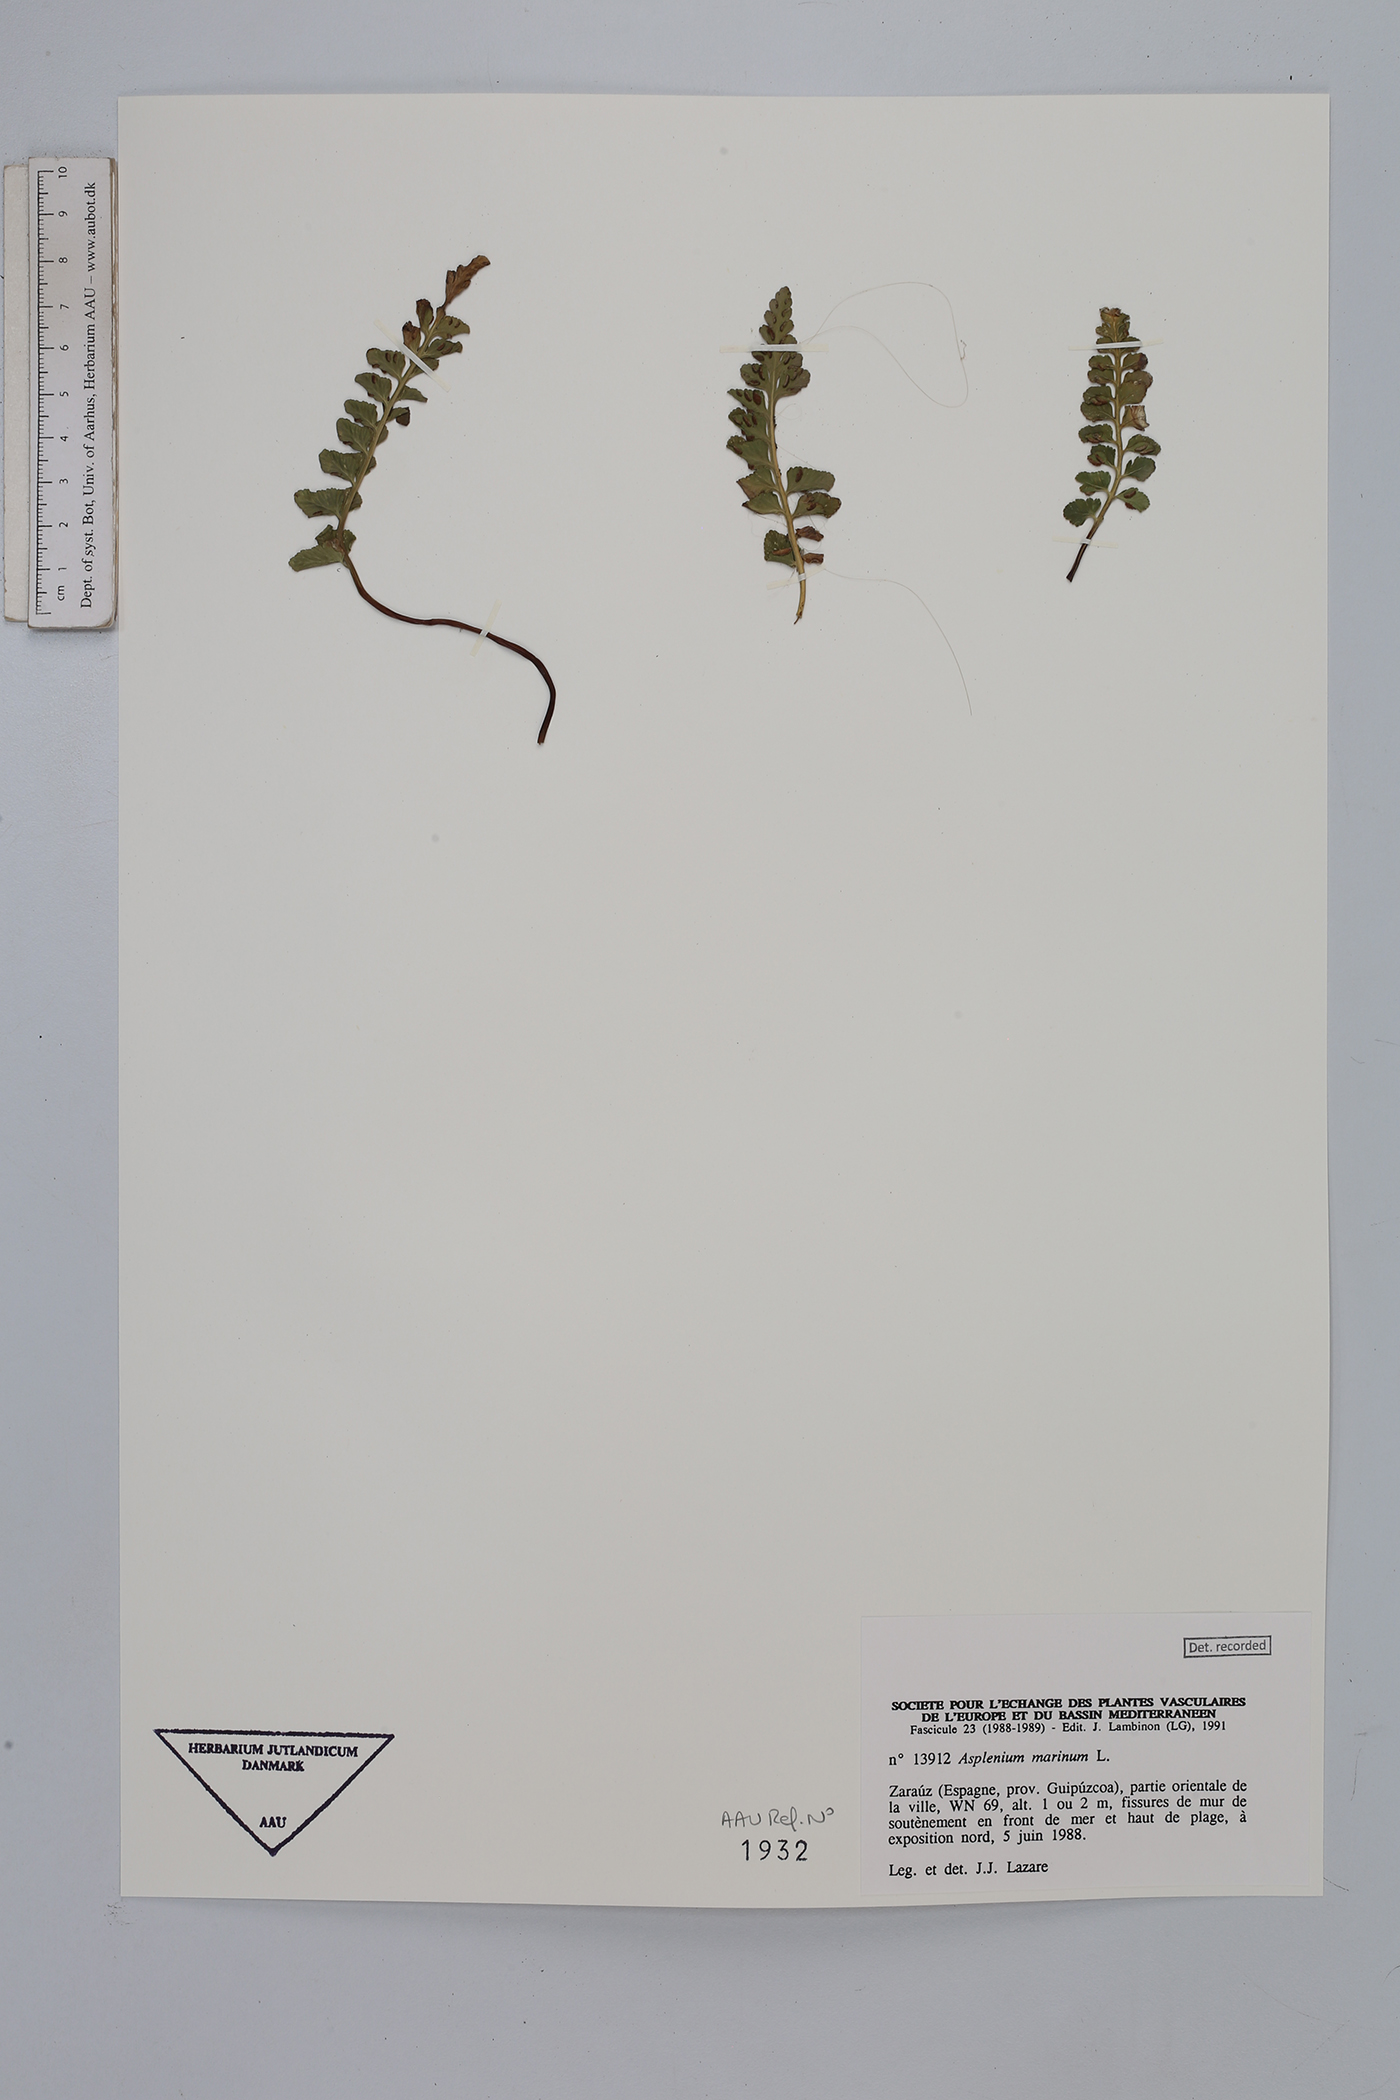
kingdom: Plantae
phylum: Tracheophyta
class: Polypodiopsida
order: Polypodiales
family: Aspleniaceae
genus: Asplenium
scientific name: Asplenium marinum
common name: Sea spleenwort
